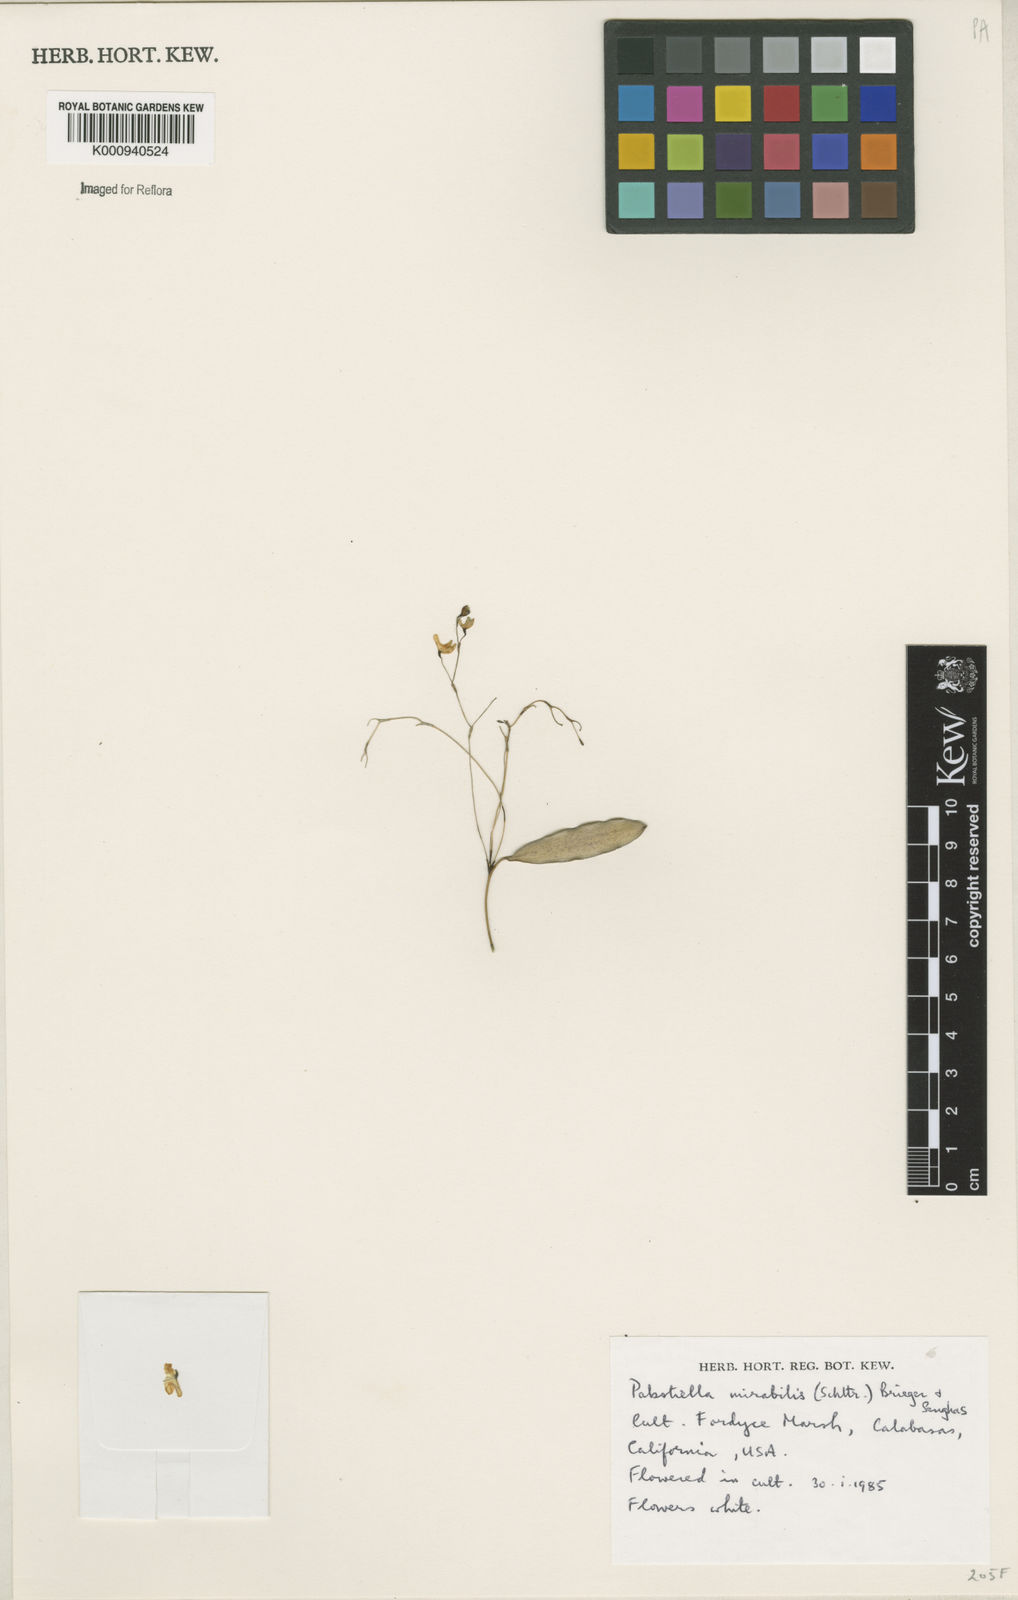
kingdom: Plantae
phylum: Tracheophyta
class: Liliopsida
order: Asparagales
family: Orchidaceae
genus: Pabstiella
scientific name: Pabstiella mirabilis
